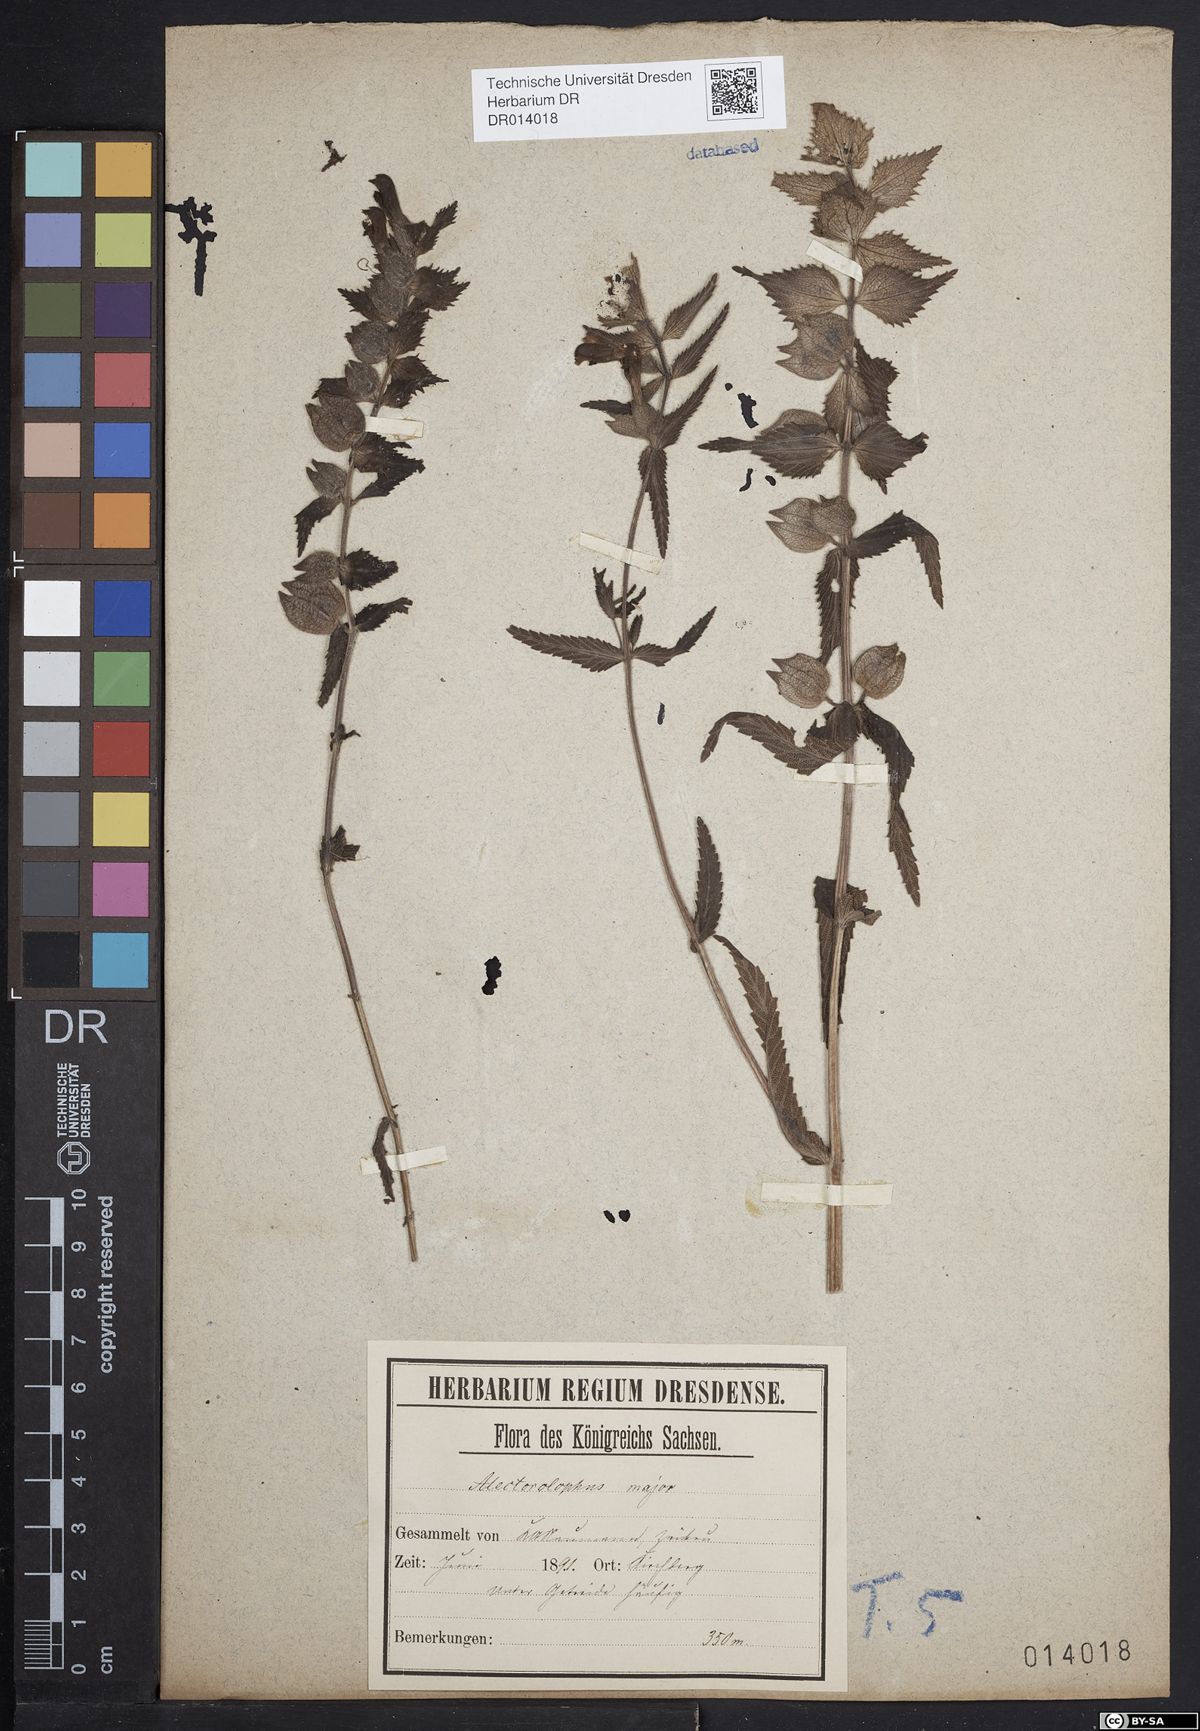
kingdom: Plantae
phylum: Tracheophyta
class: Magnoliopsida
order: Lamiales
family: Orobanchaceae
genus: Rhinanthus
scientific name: Rhinanthus alectorolophus
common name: Greater yellow-rattle
